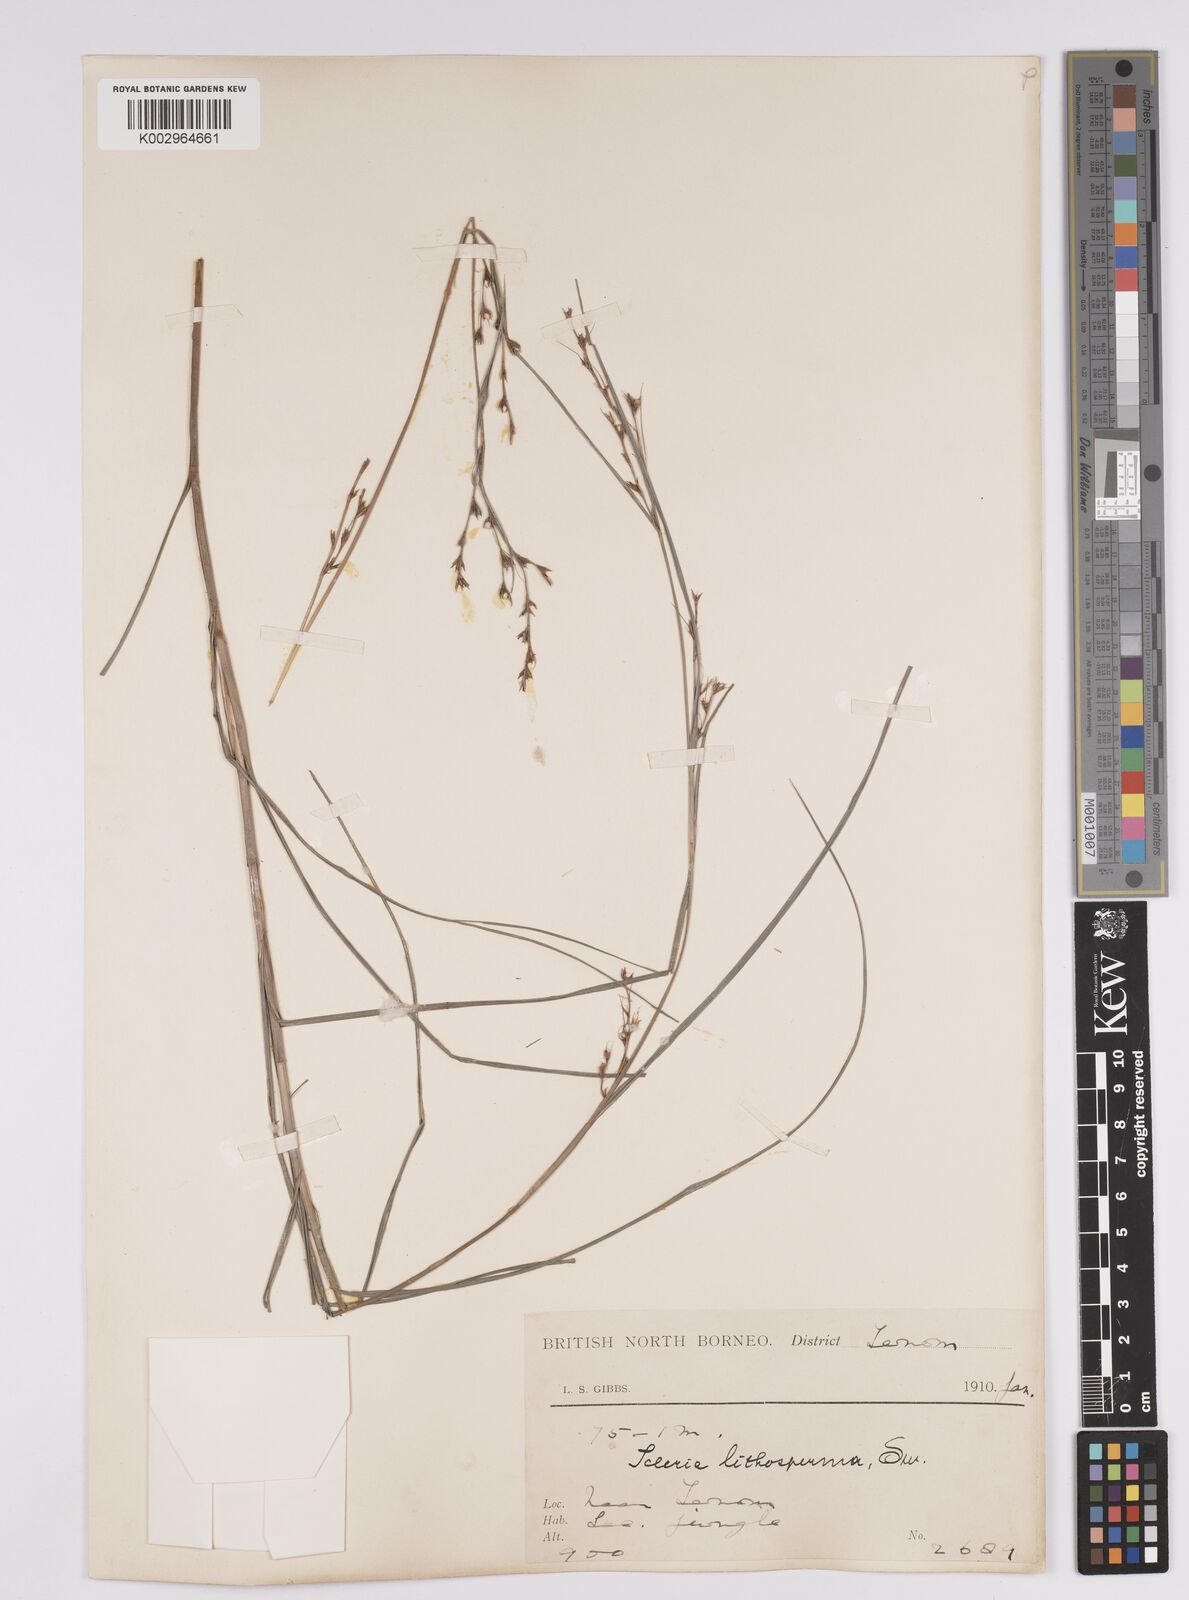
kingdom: Plantae
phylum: Tracheophyta
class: Liliopsida
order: Poales
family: Cyperaceae
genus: Scleria
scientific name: Scleria lithosperma
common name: Florida keys nut-rush
